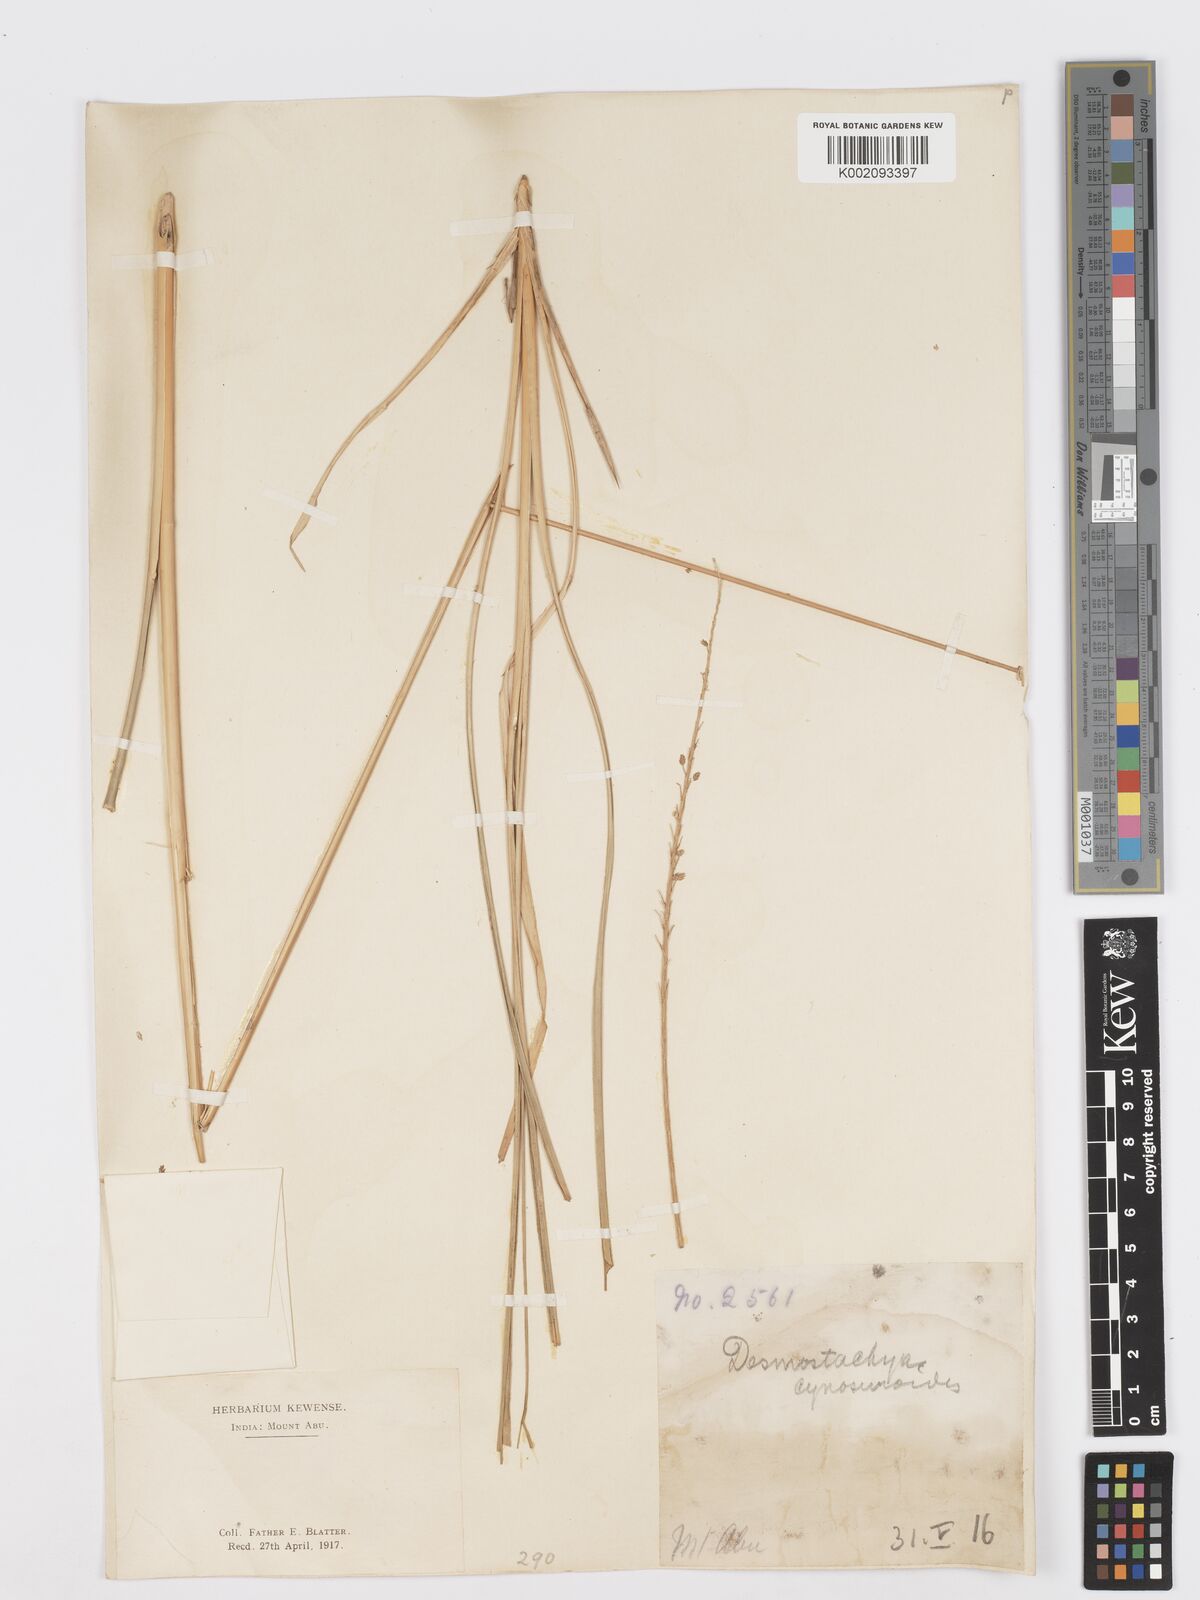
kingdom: Plantae
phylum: Tracheophyta
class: Liliopsida
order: Poales
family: Poaceae
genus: Desmostachya
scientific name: Desmostachya bipinnata
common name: Crowfoot grass
